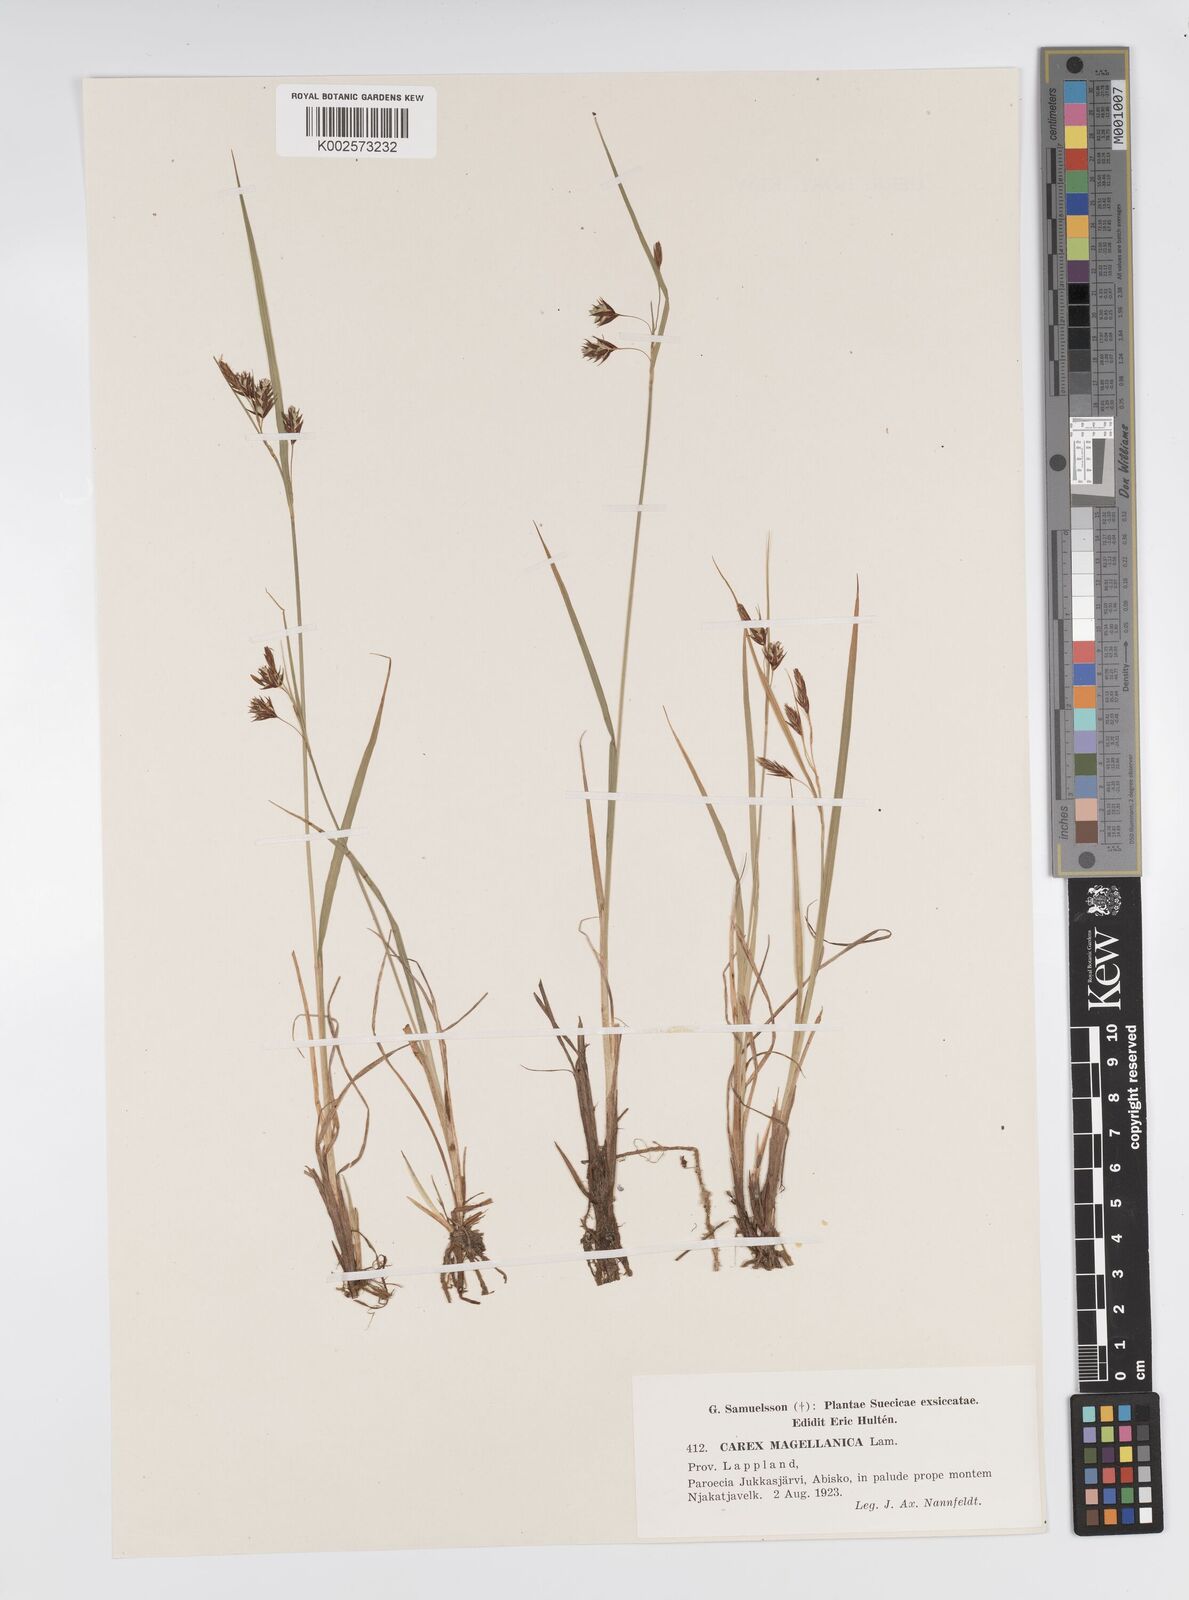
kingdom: Plantae
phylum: Tracheophyta
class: Liliopsida
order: Poales
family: Cyperaceae
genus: Carex
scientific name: Carex magellanica
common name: Bog sedge
